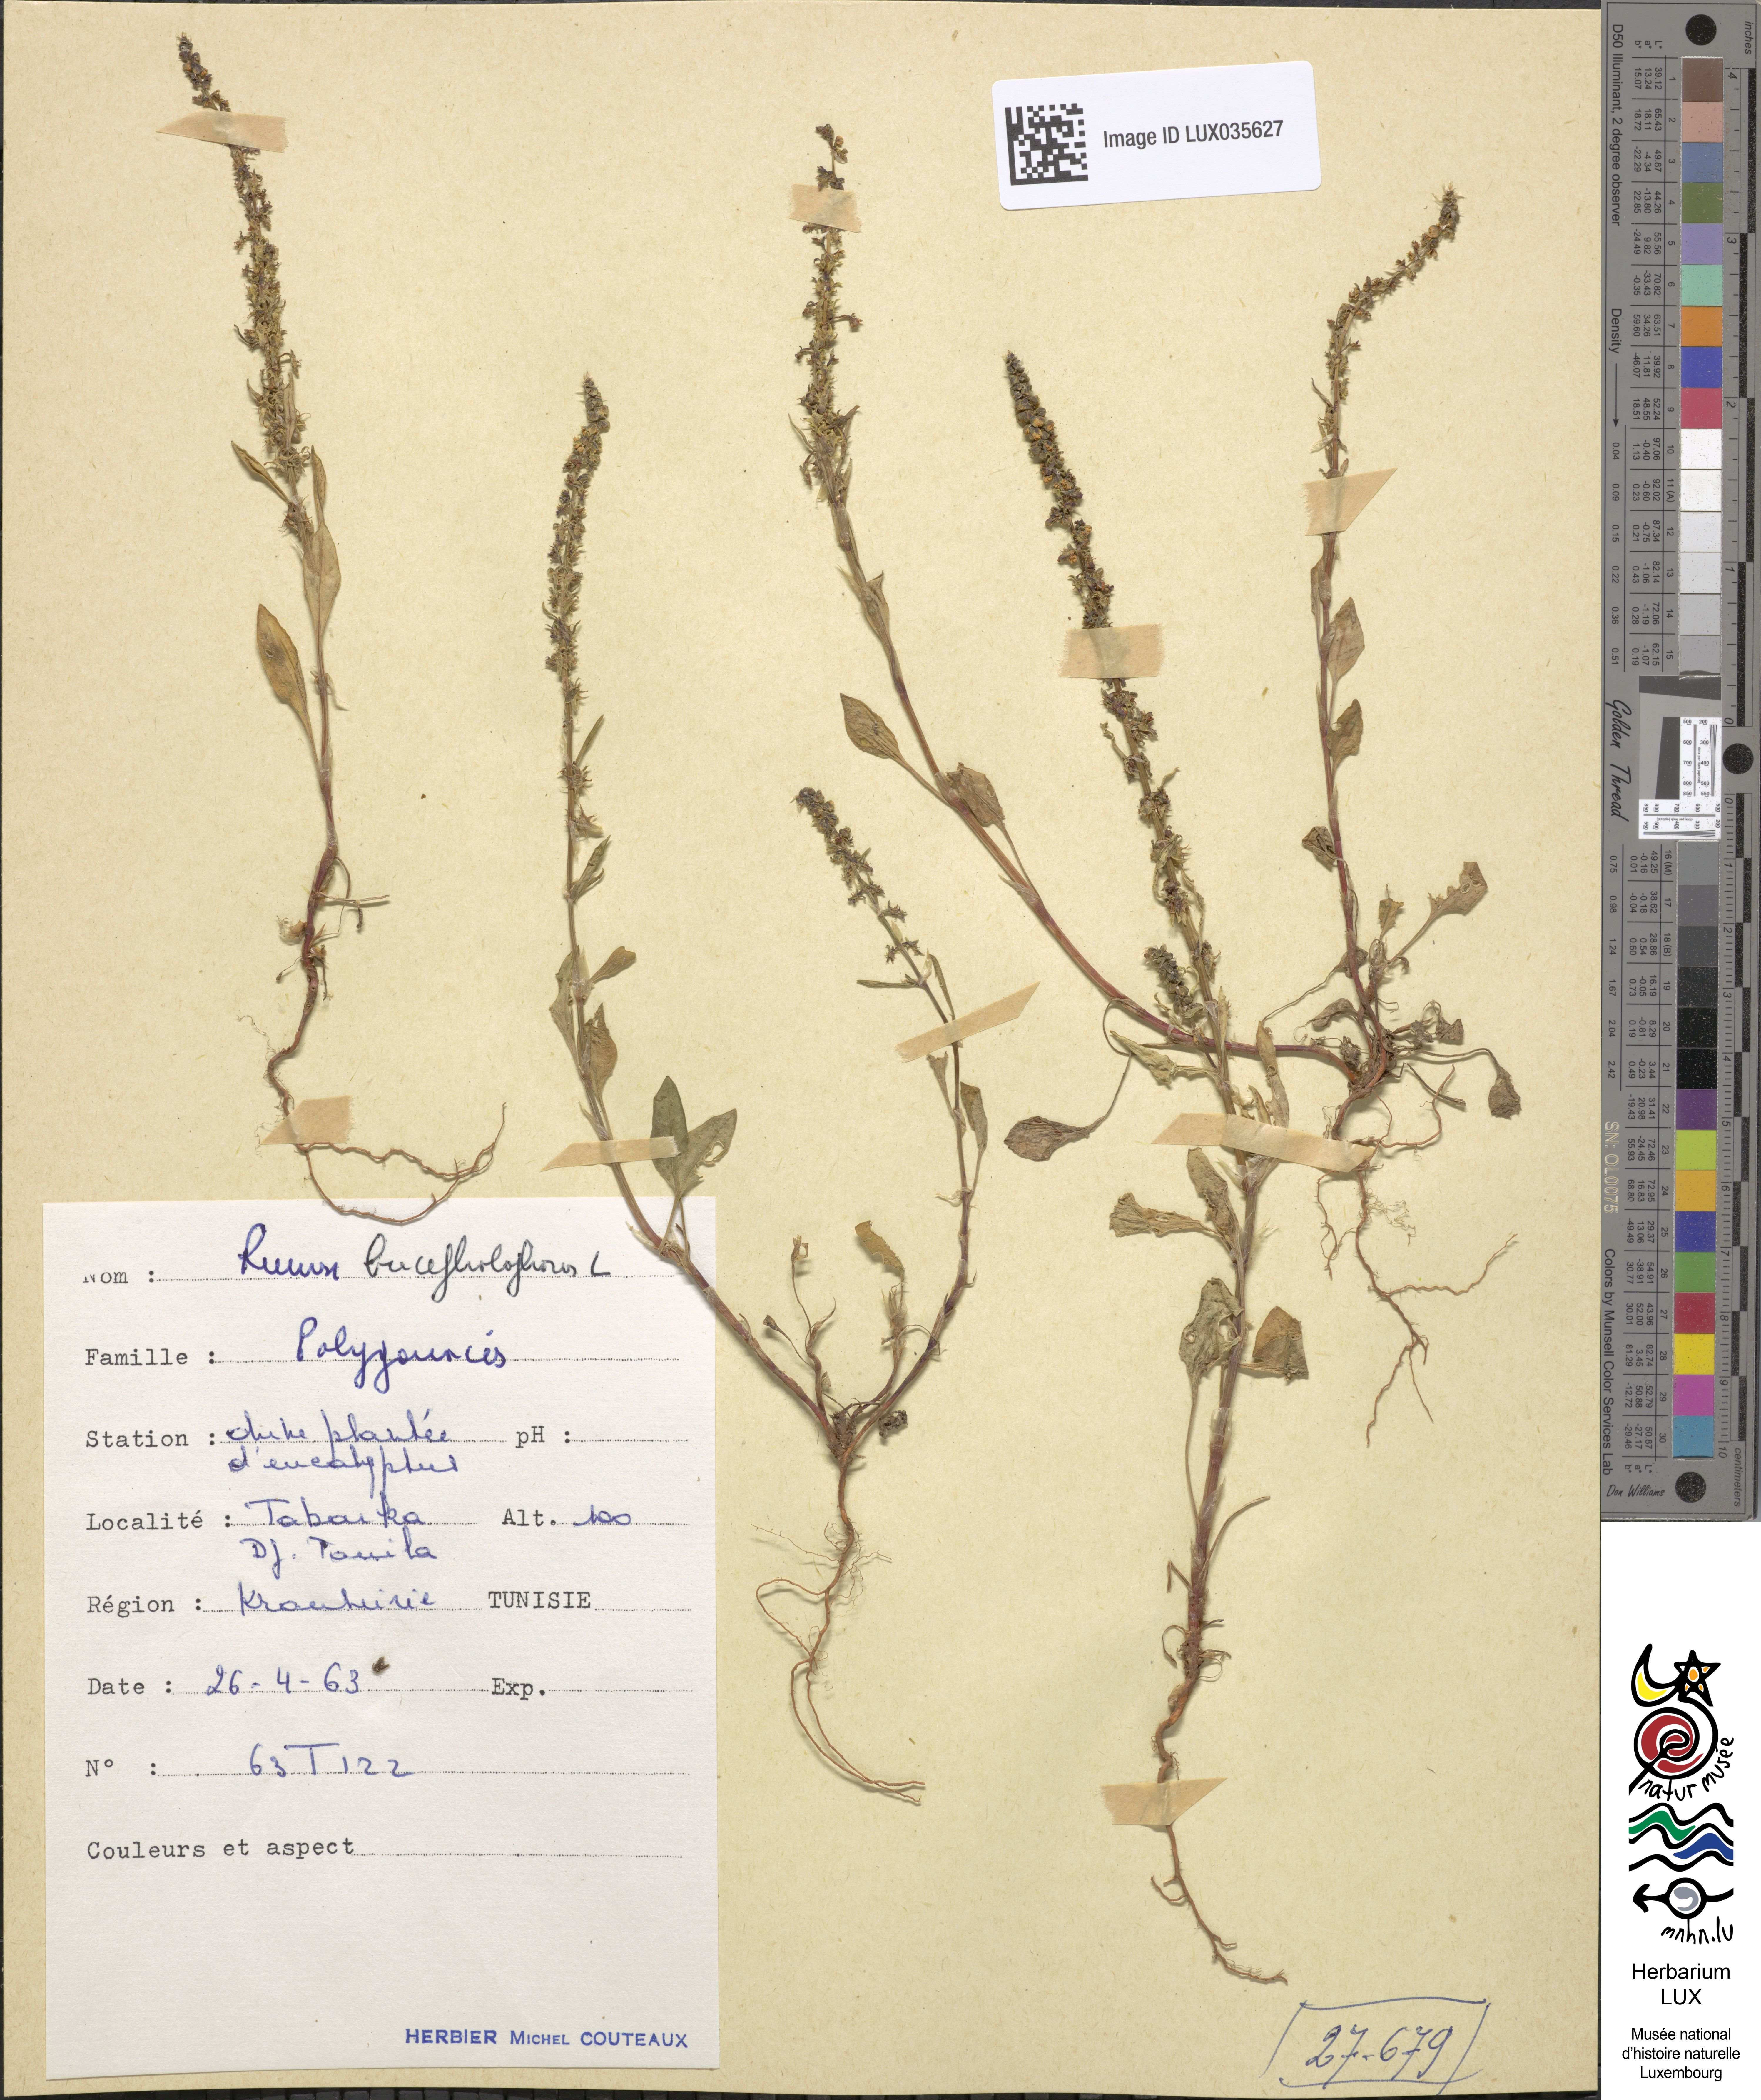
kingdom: Plantae
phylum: Tracheophyta
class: Magnoliopsida
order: Caryophyllales
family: Polygonaceae
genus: Rumex
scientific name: Rumex bucephalophorus
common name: Red dock
